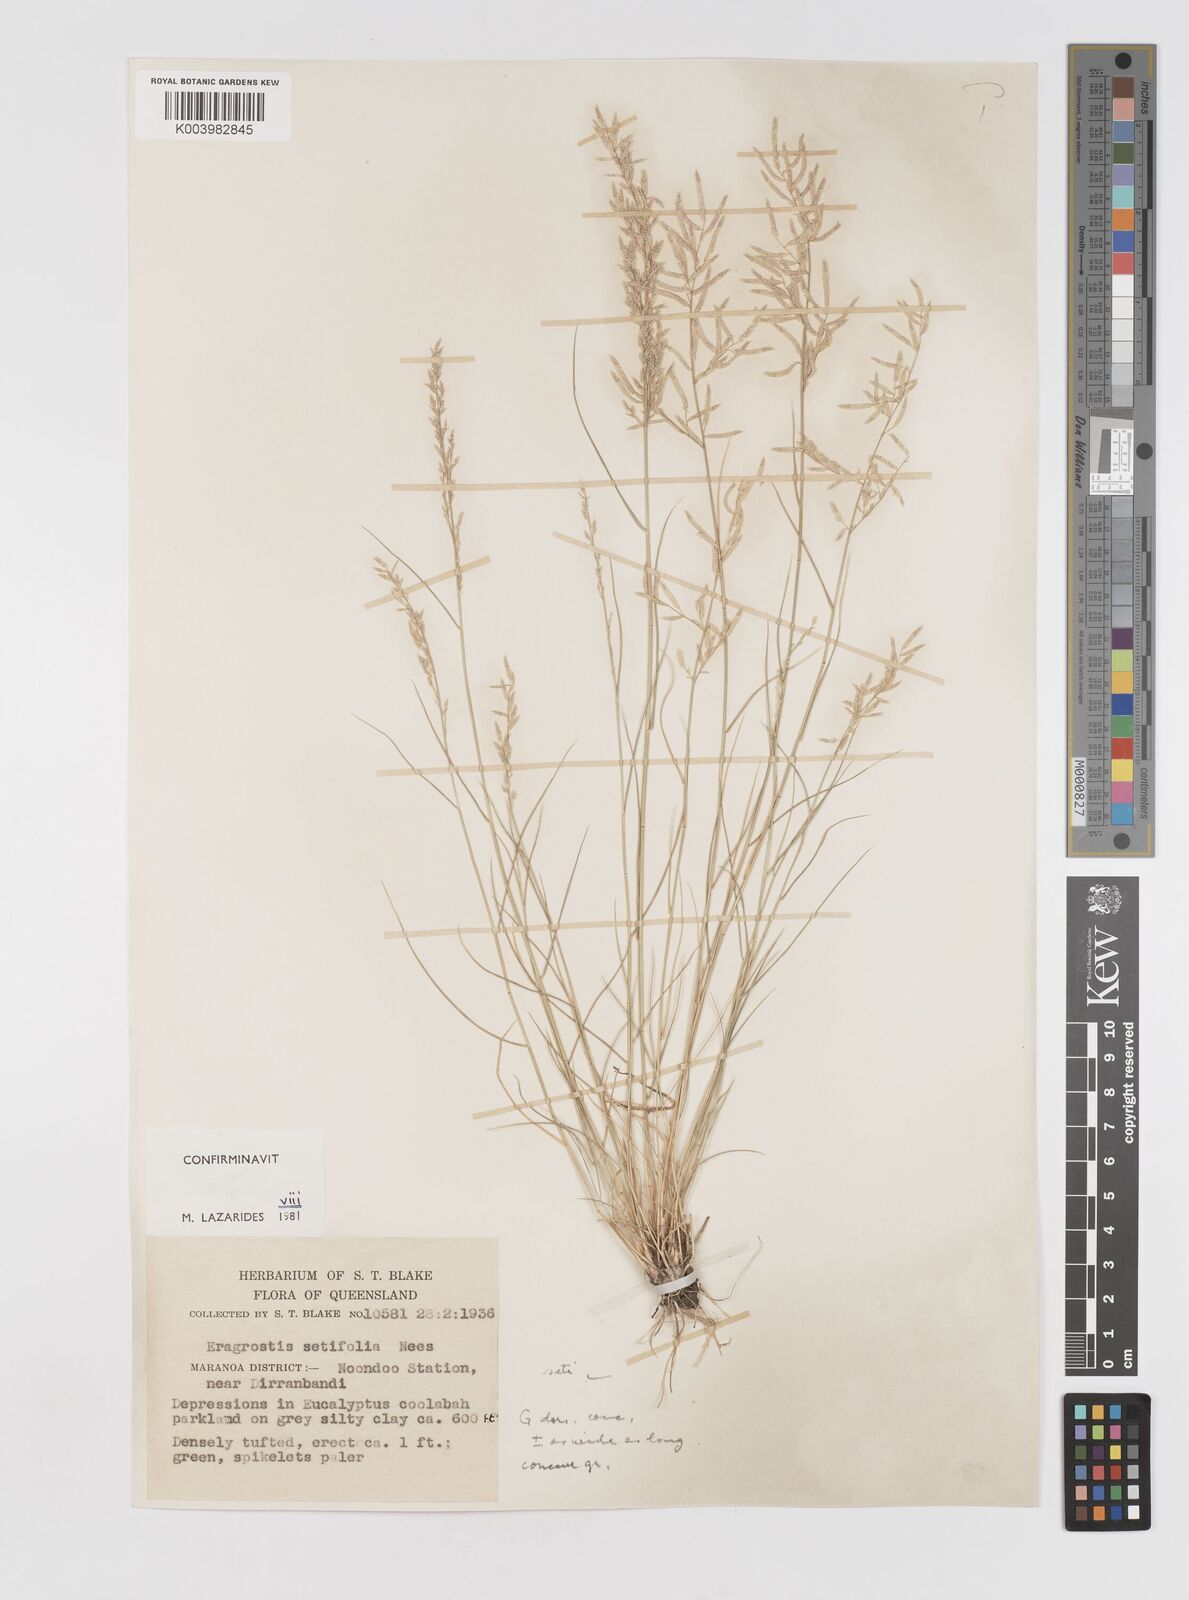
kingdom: Plantae
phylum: Tracheophyta
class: Liliopsida
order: Poales
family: Poaceae
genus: Eragrostis
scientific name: Eragrostis setifolia
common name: Bristleleaf lovegrass
